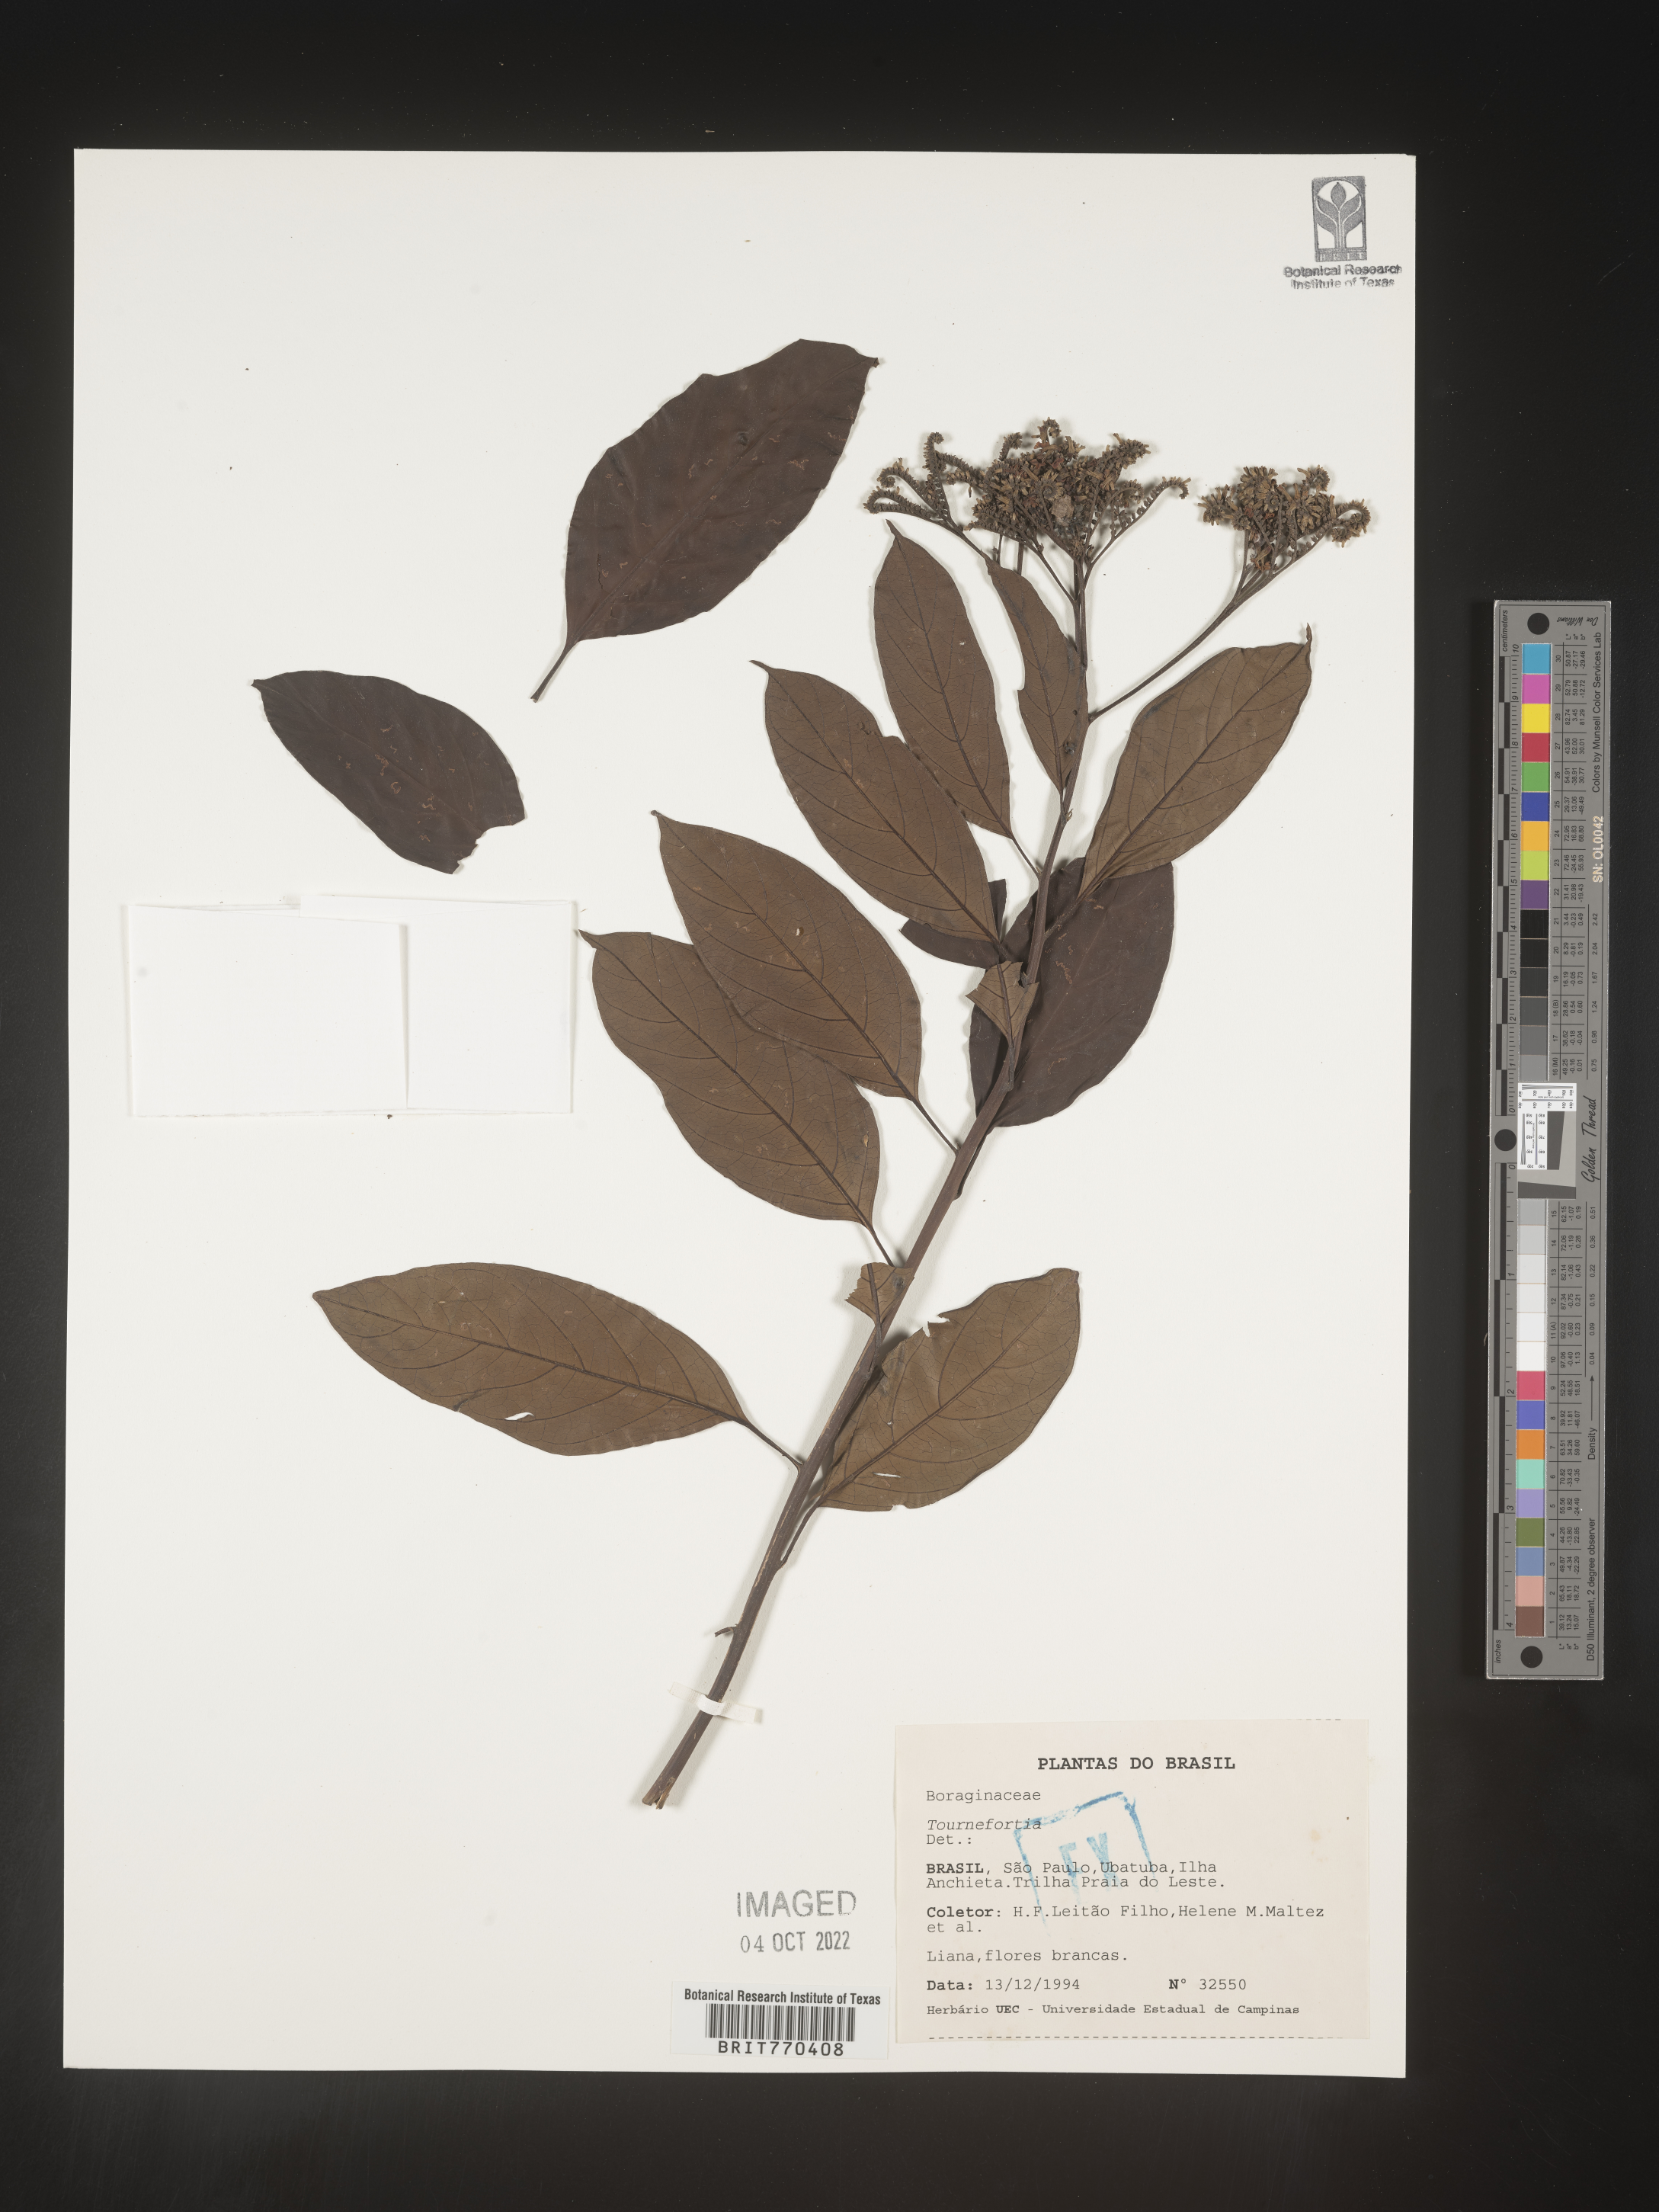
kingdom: Plantae
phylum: Tracheophyta
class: Magnoliopsida
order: Boraginales
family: Heliotropiaceae
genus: Tournefortia
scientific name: Tournefortia
